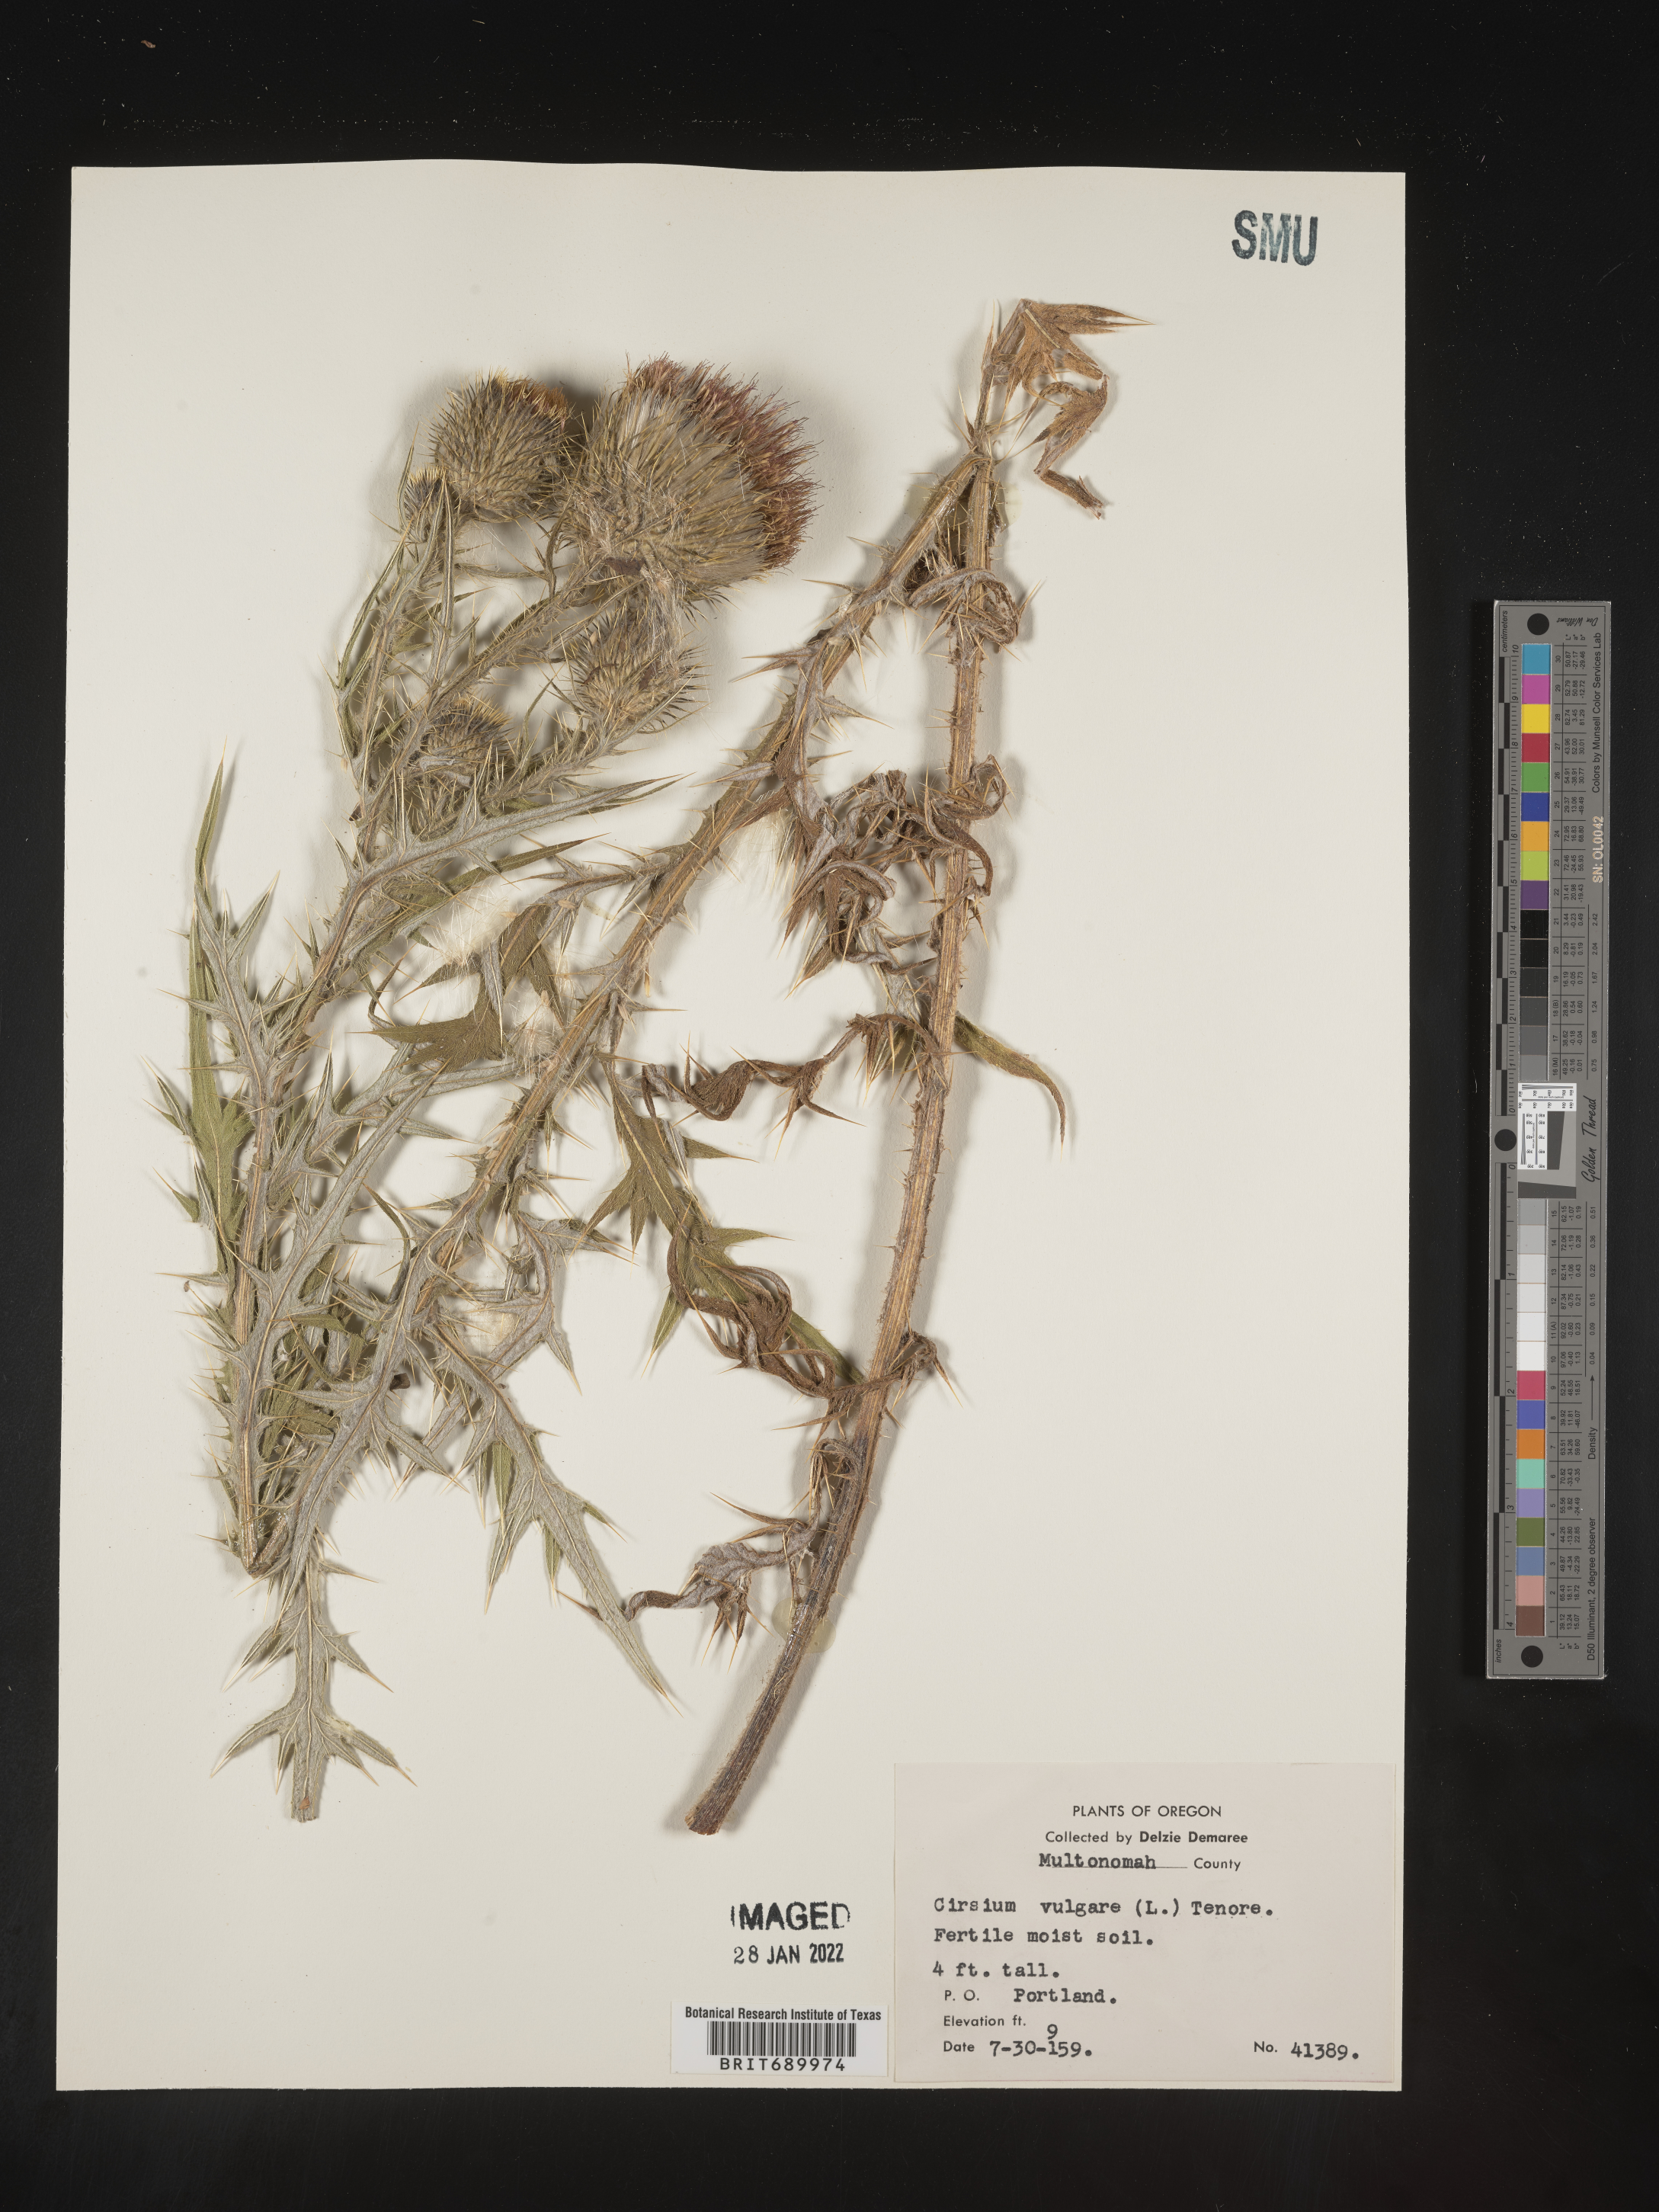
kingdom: Plantae
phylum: Tracheophyta
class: Magnoliopsida
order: Asterales
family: Asteraceae
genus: Cirsium
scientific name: Cirsium vulgare
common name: Bull thistle
